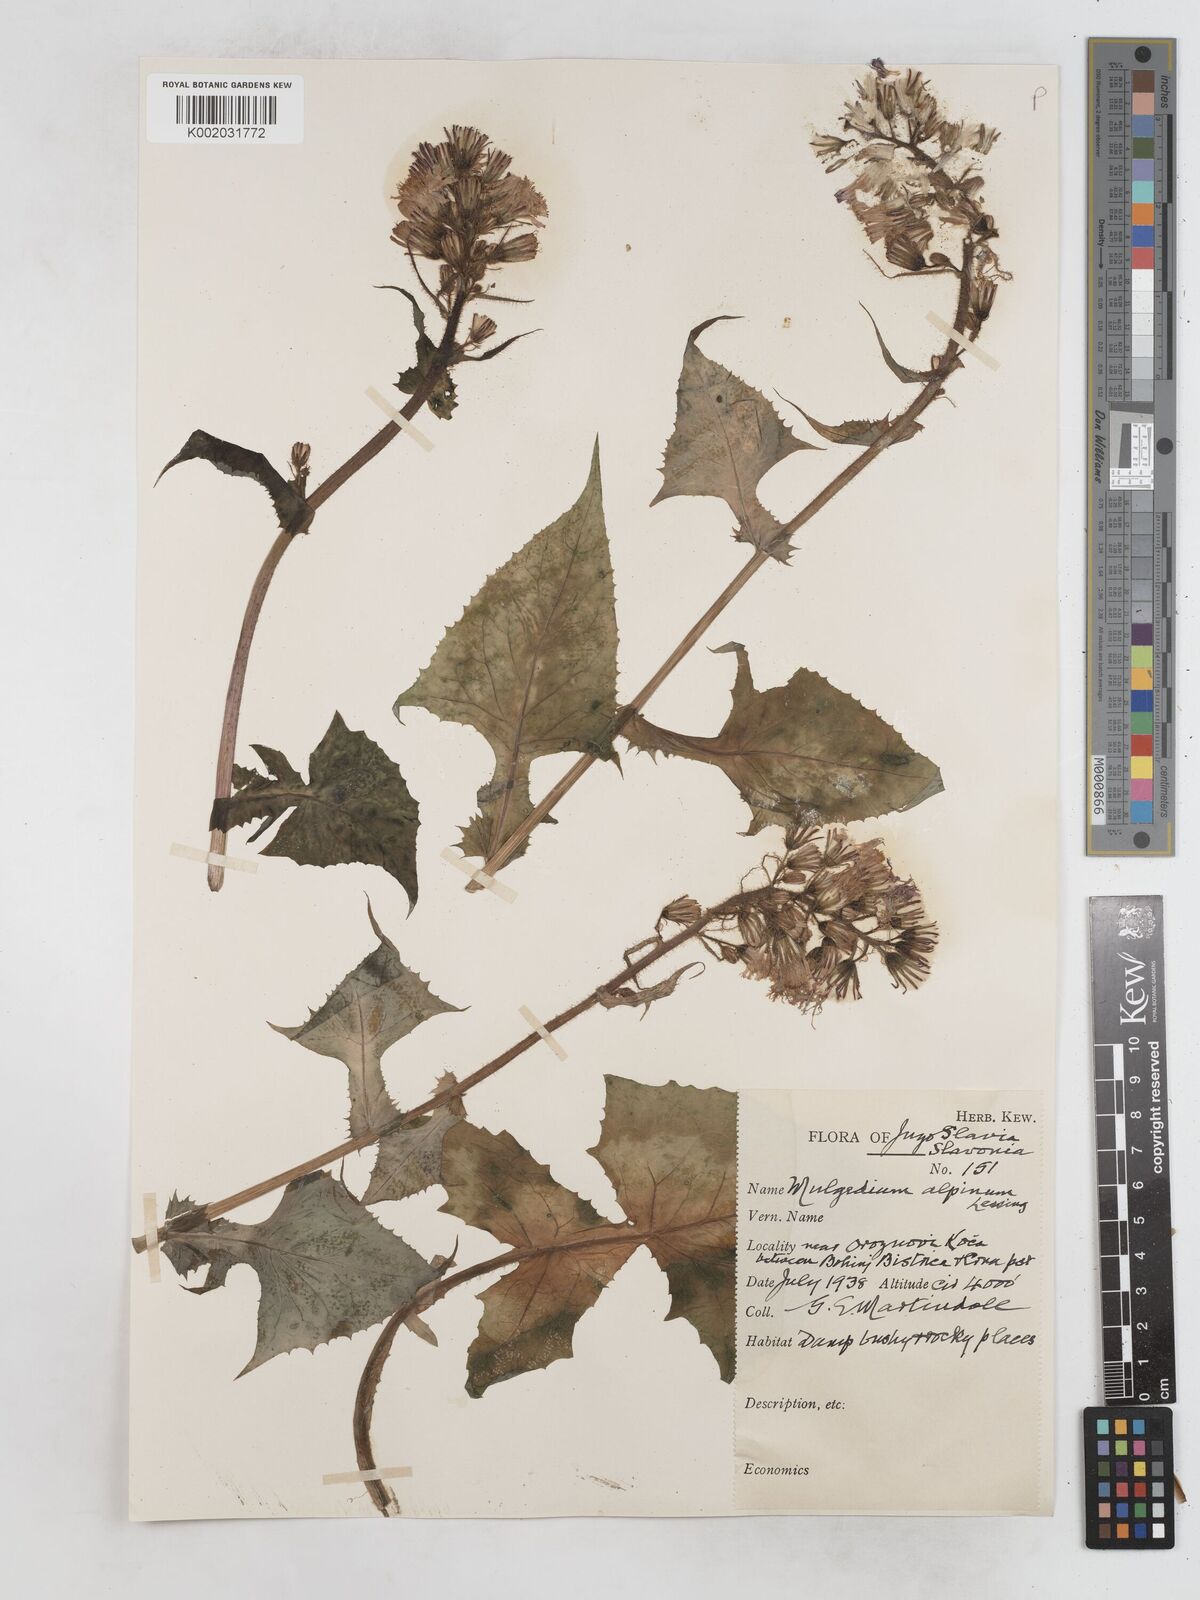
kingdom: Plantae
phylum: Tracheophyta
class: Magnoliopsida
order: Asterales
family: Asteraceae
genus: Cicerbita
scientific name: Cicerbita alpina
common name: Alpine blue-sow-thistle
